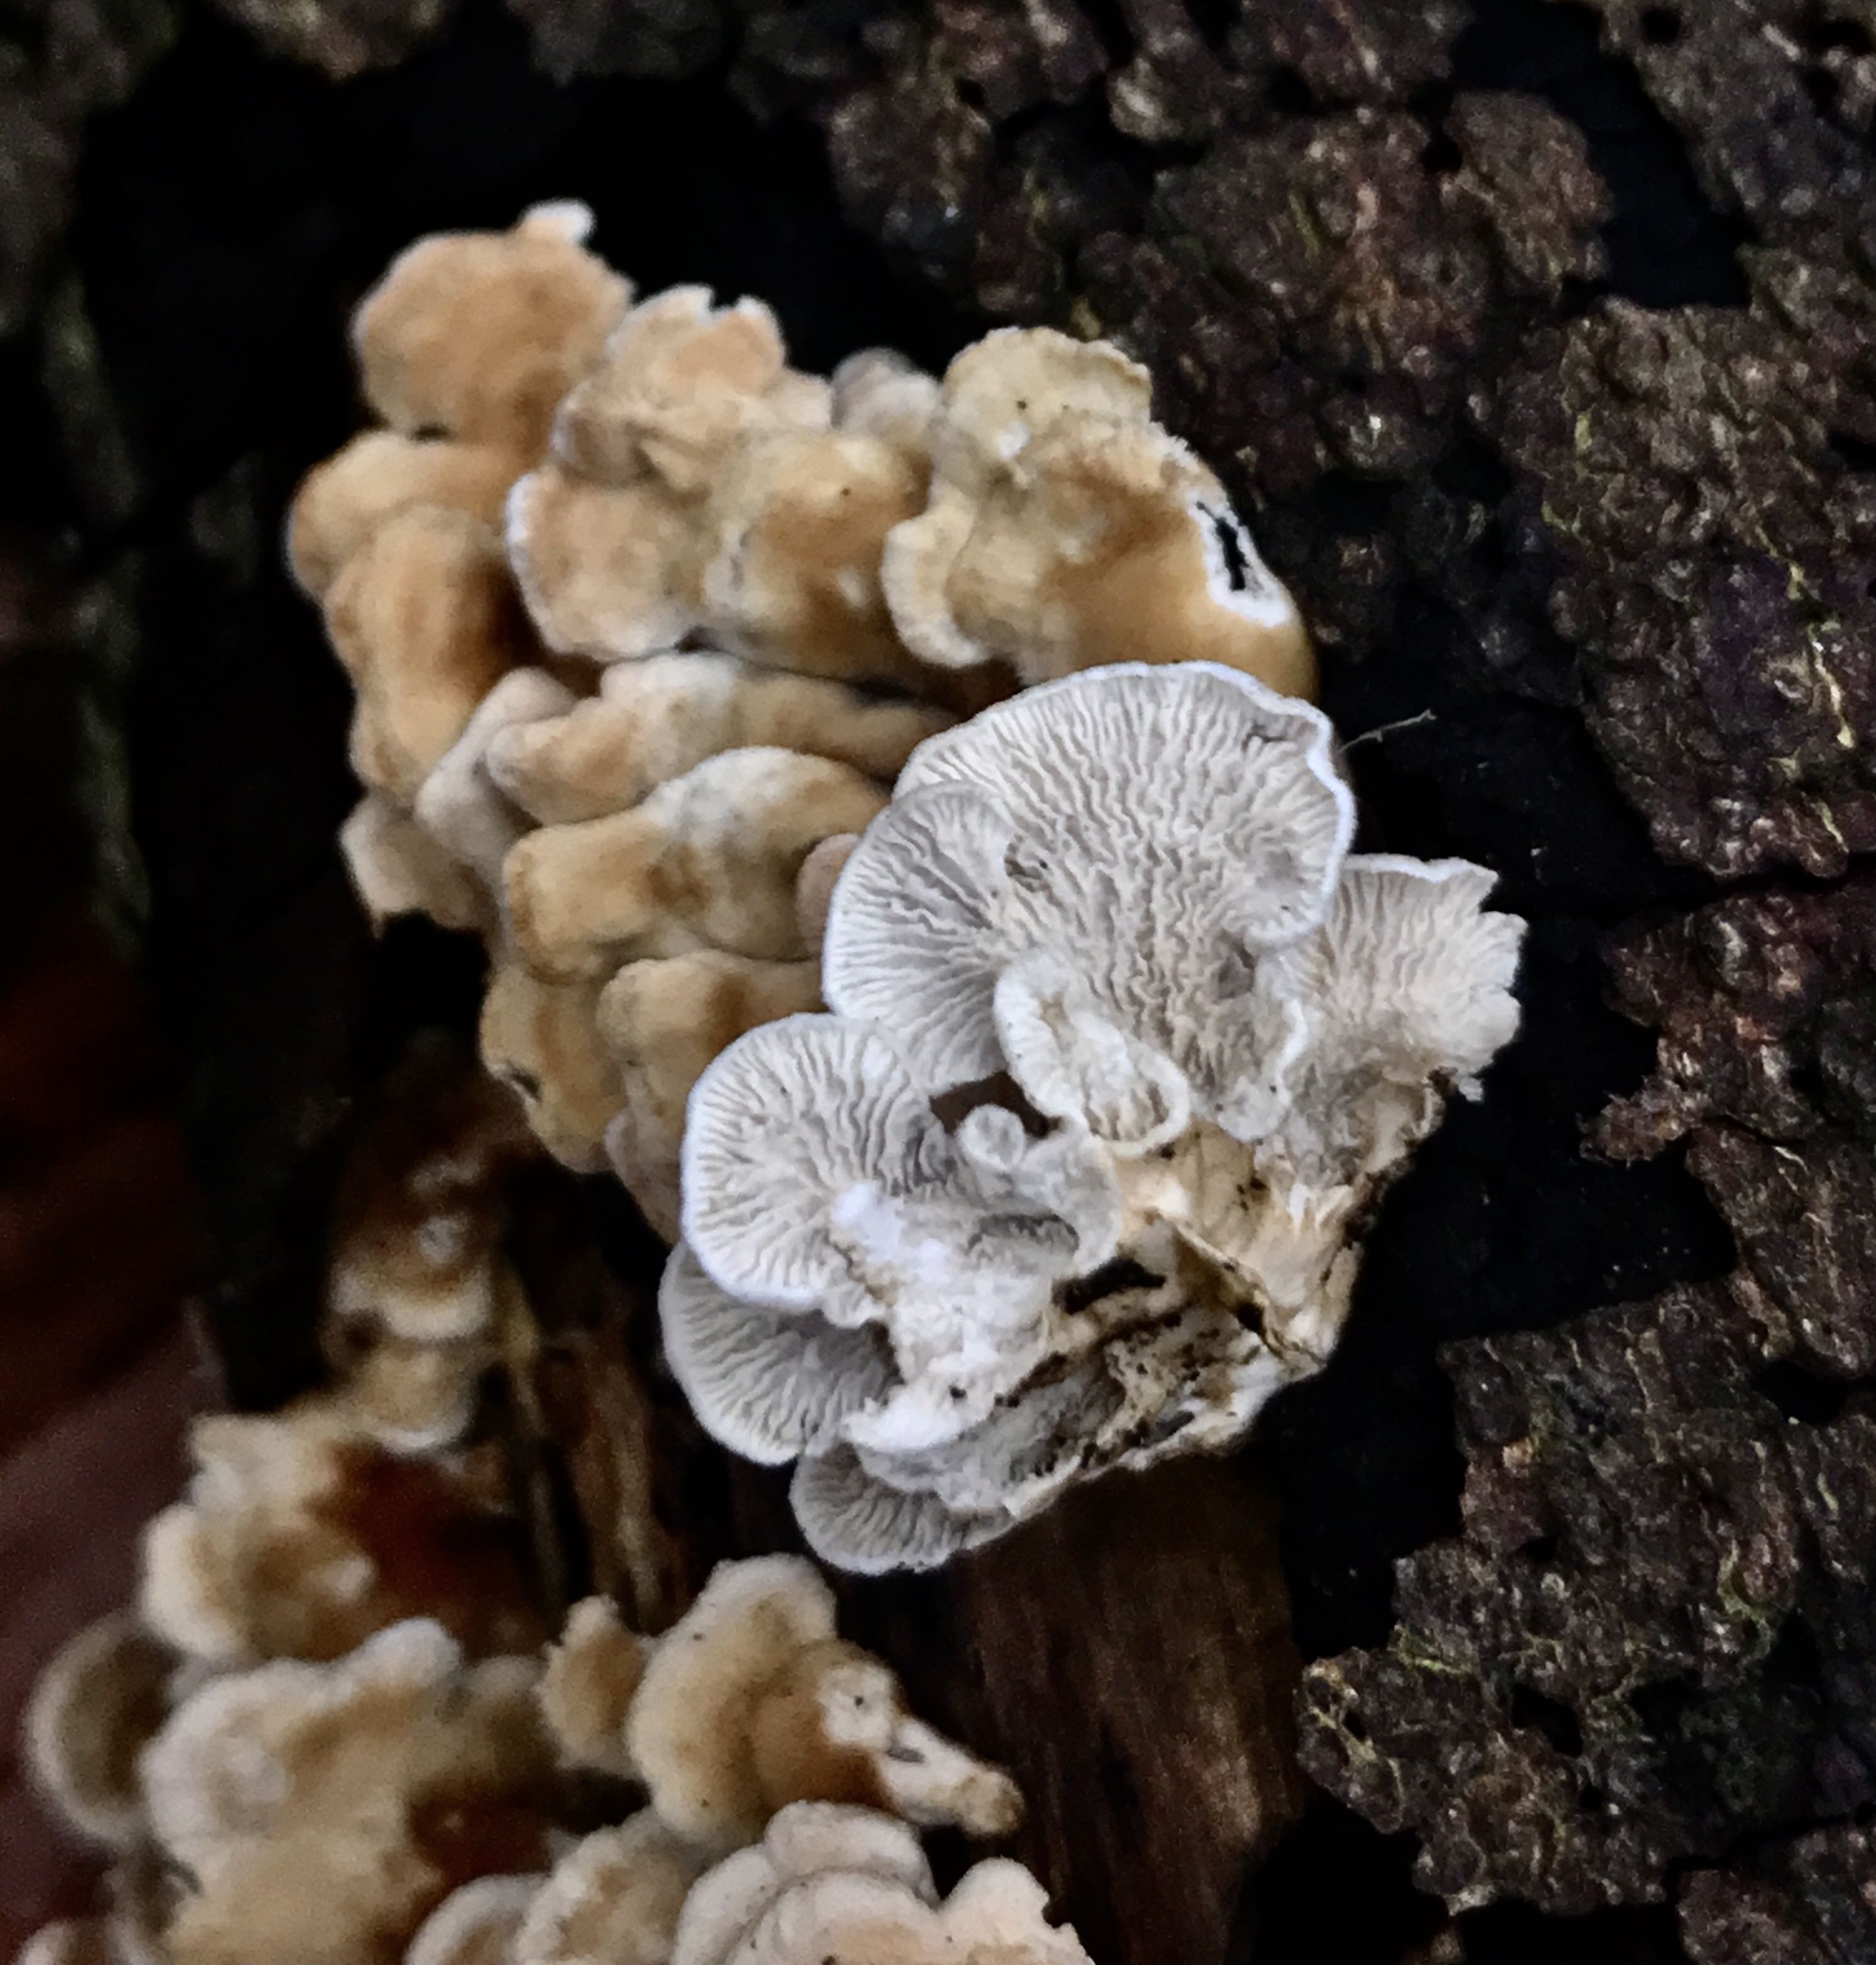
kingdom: Fungi
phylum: Basidiomycota
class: Agaricomycetes
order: Amylocorticiales
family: Amylocorticiaceae
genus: Plicaturopsis
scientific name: Plicaturopsis crispa
